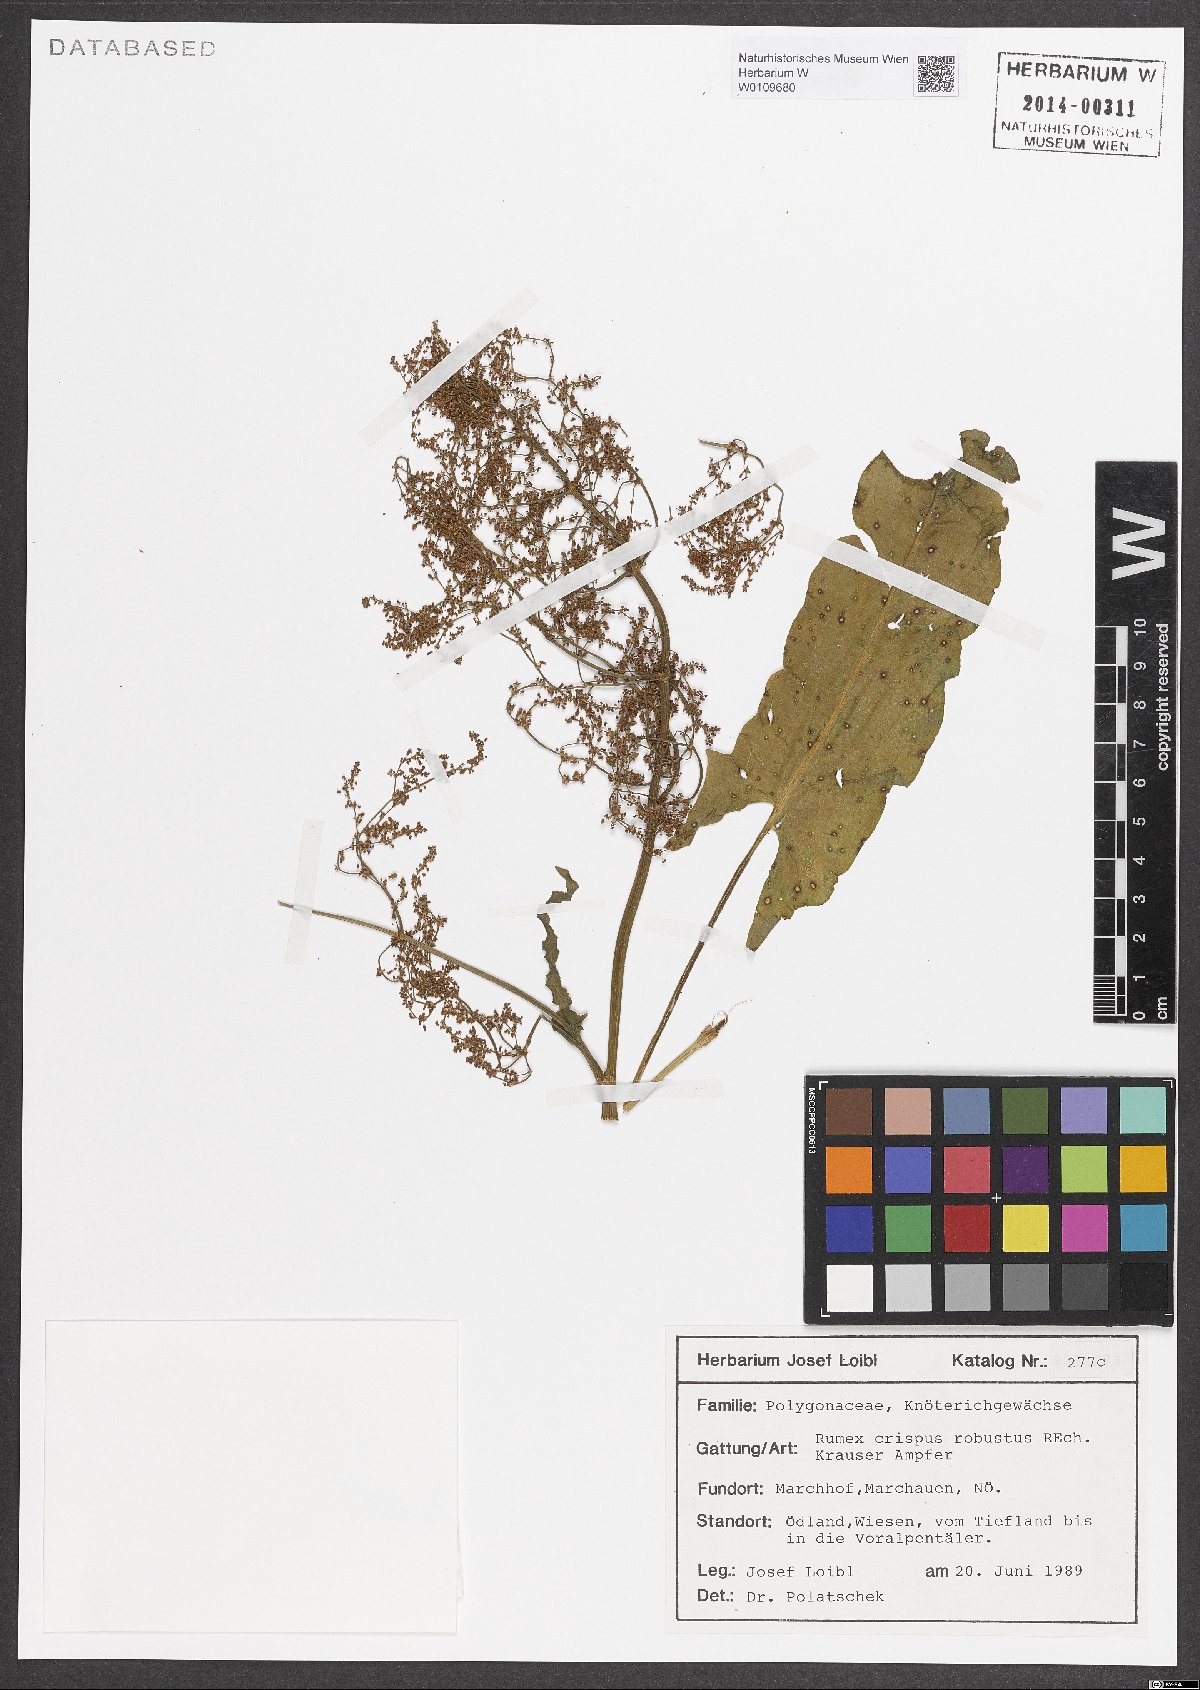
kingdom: Plantae
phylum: Tracheophyta
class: Magnoliopsida
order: Caryophyllales
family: Polygonaceae
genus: Rumex
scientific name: Rumex crispus
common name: Curled dock
